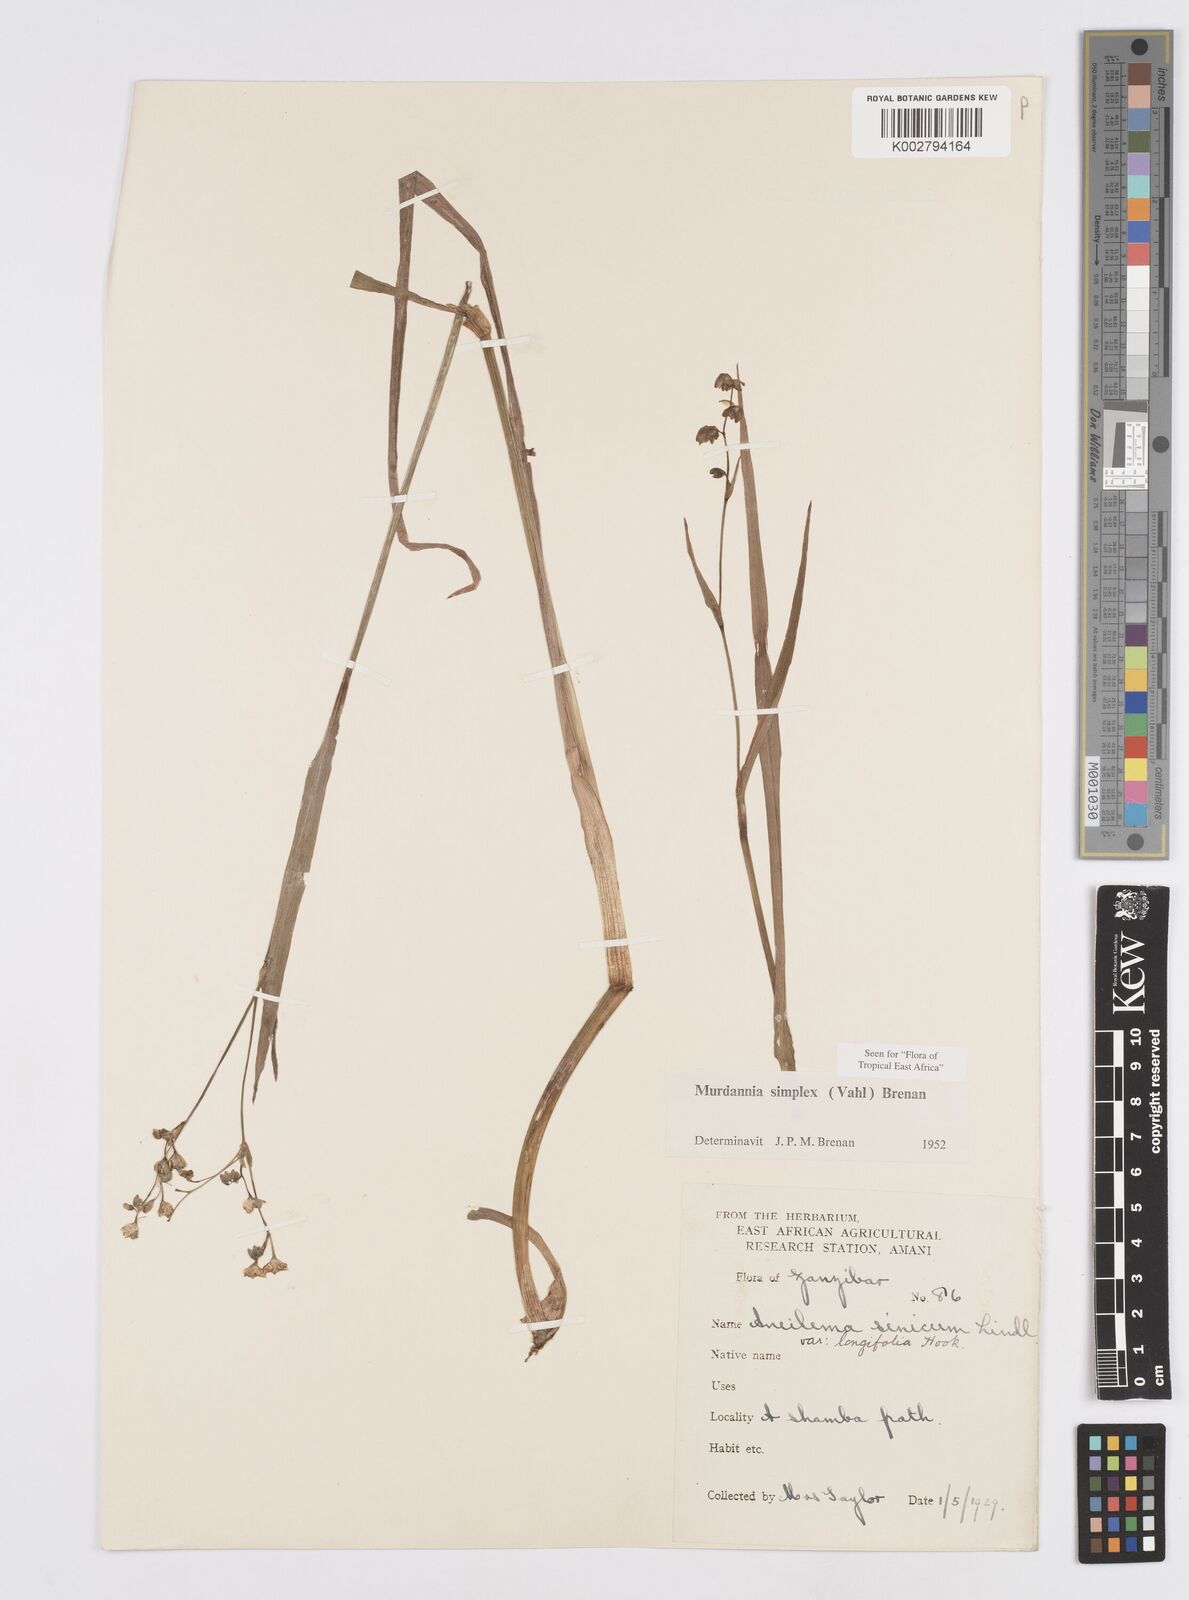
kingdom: Plantae
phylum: Tracheophyta
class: Liliopsida
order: Commelinales
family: Commelinaceae
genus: Murdannia
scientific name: Murdannia simplex
